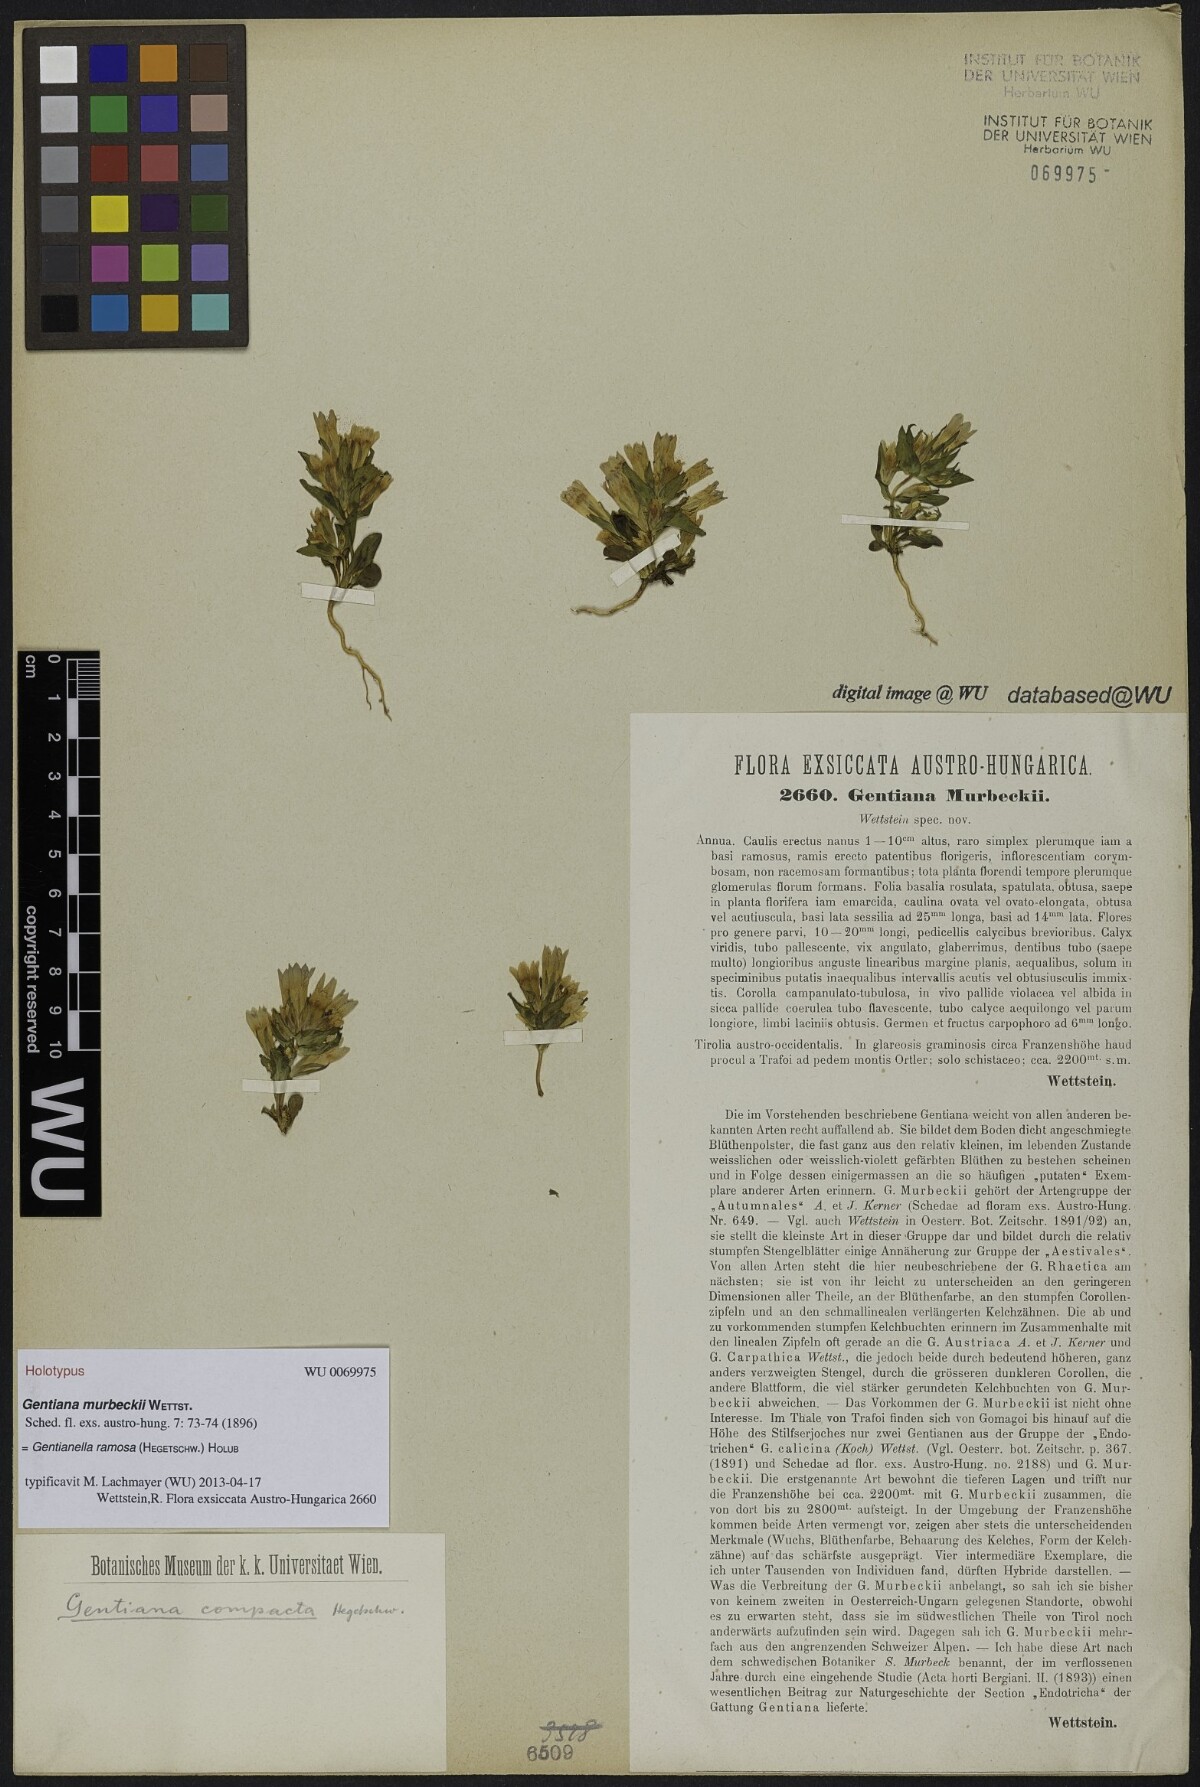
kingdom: Plantae
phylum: Tracheophyta
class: Magnoliopsida
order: Gentianales
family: Gentianaceae
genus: Gentianella
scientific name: Gentianella ramosa
